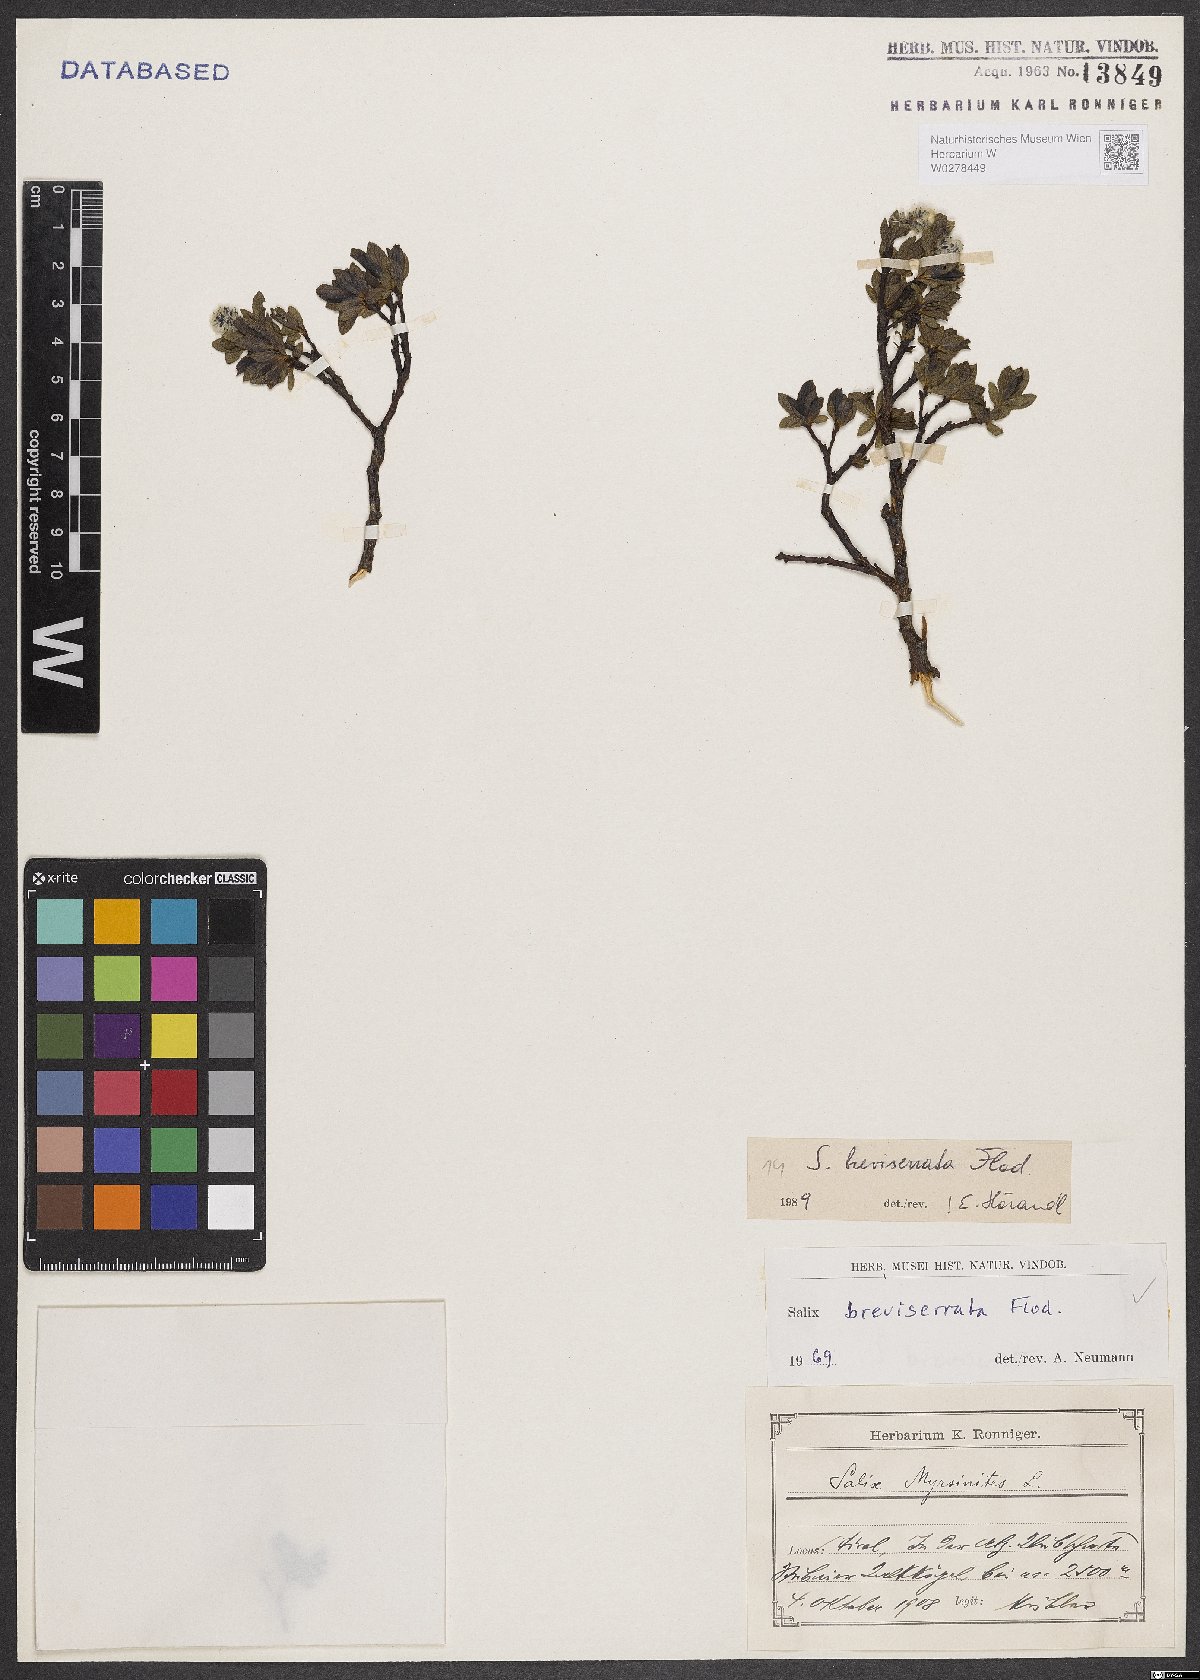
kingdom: Plantae
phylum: Tracheophyta
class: Magnoliopsida
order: Malpighiales
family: Salicaceae
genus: Salix
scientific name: Salix breviserrata
